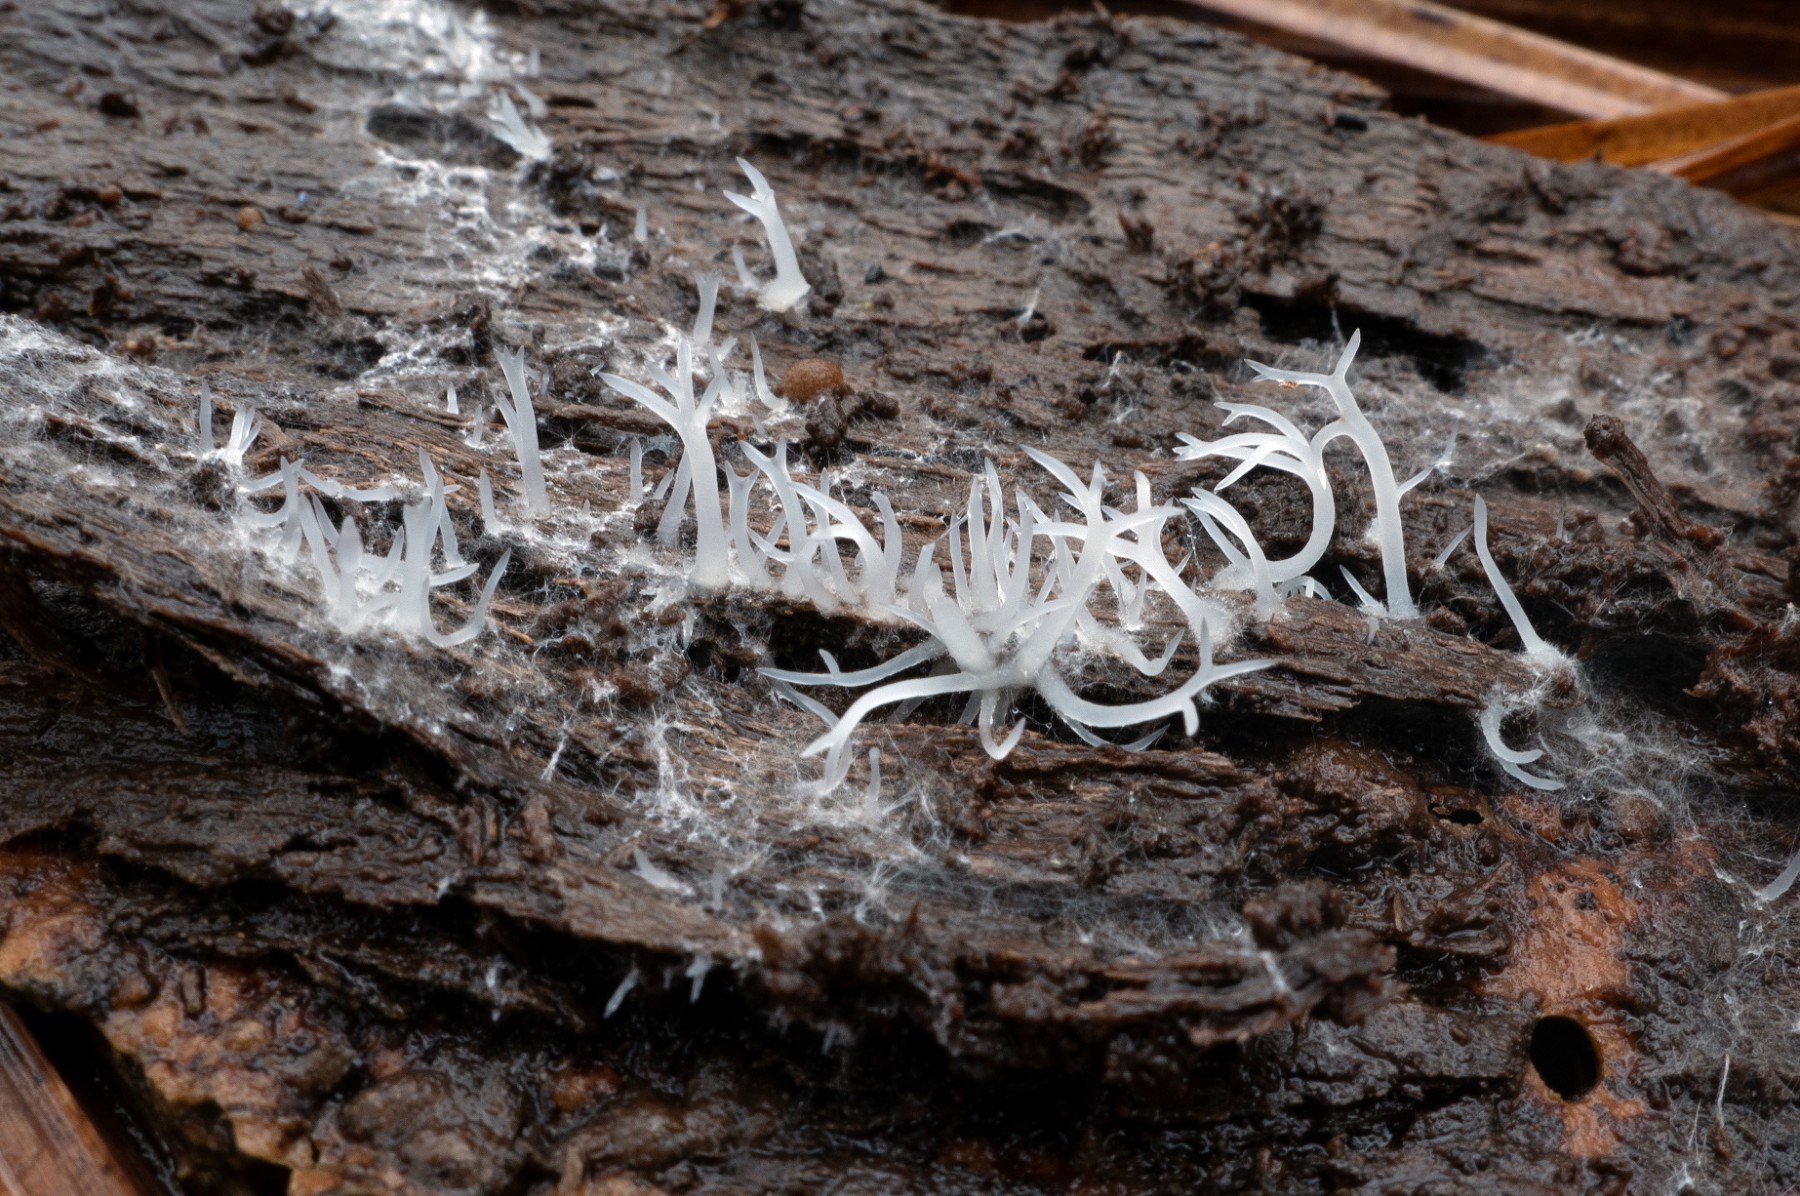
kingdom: Fungi
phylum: Basidiomycota
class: Agaricomycetes
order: Gomphales
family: Lentariaceae
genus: Lentaria
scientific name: Lentaria subcaulescens
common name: stor grenkølle
